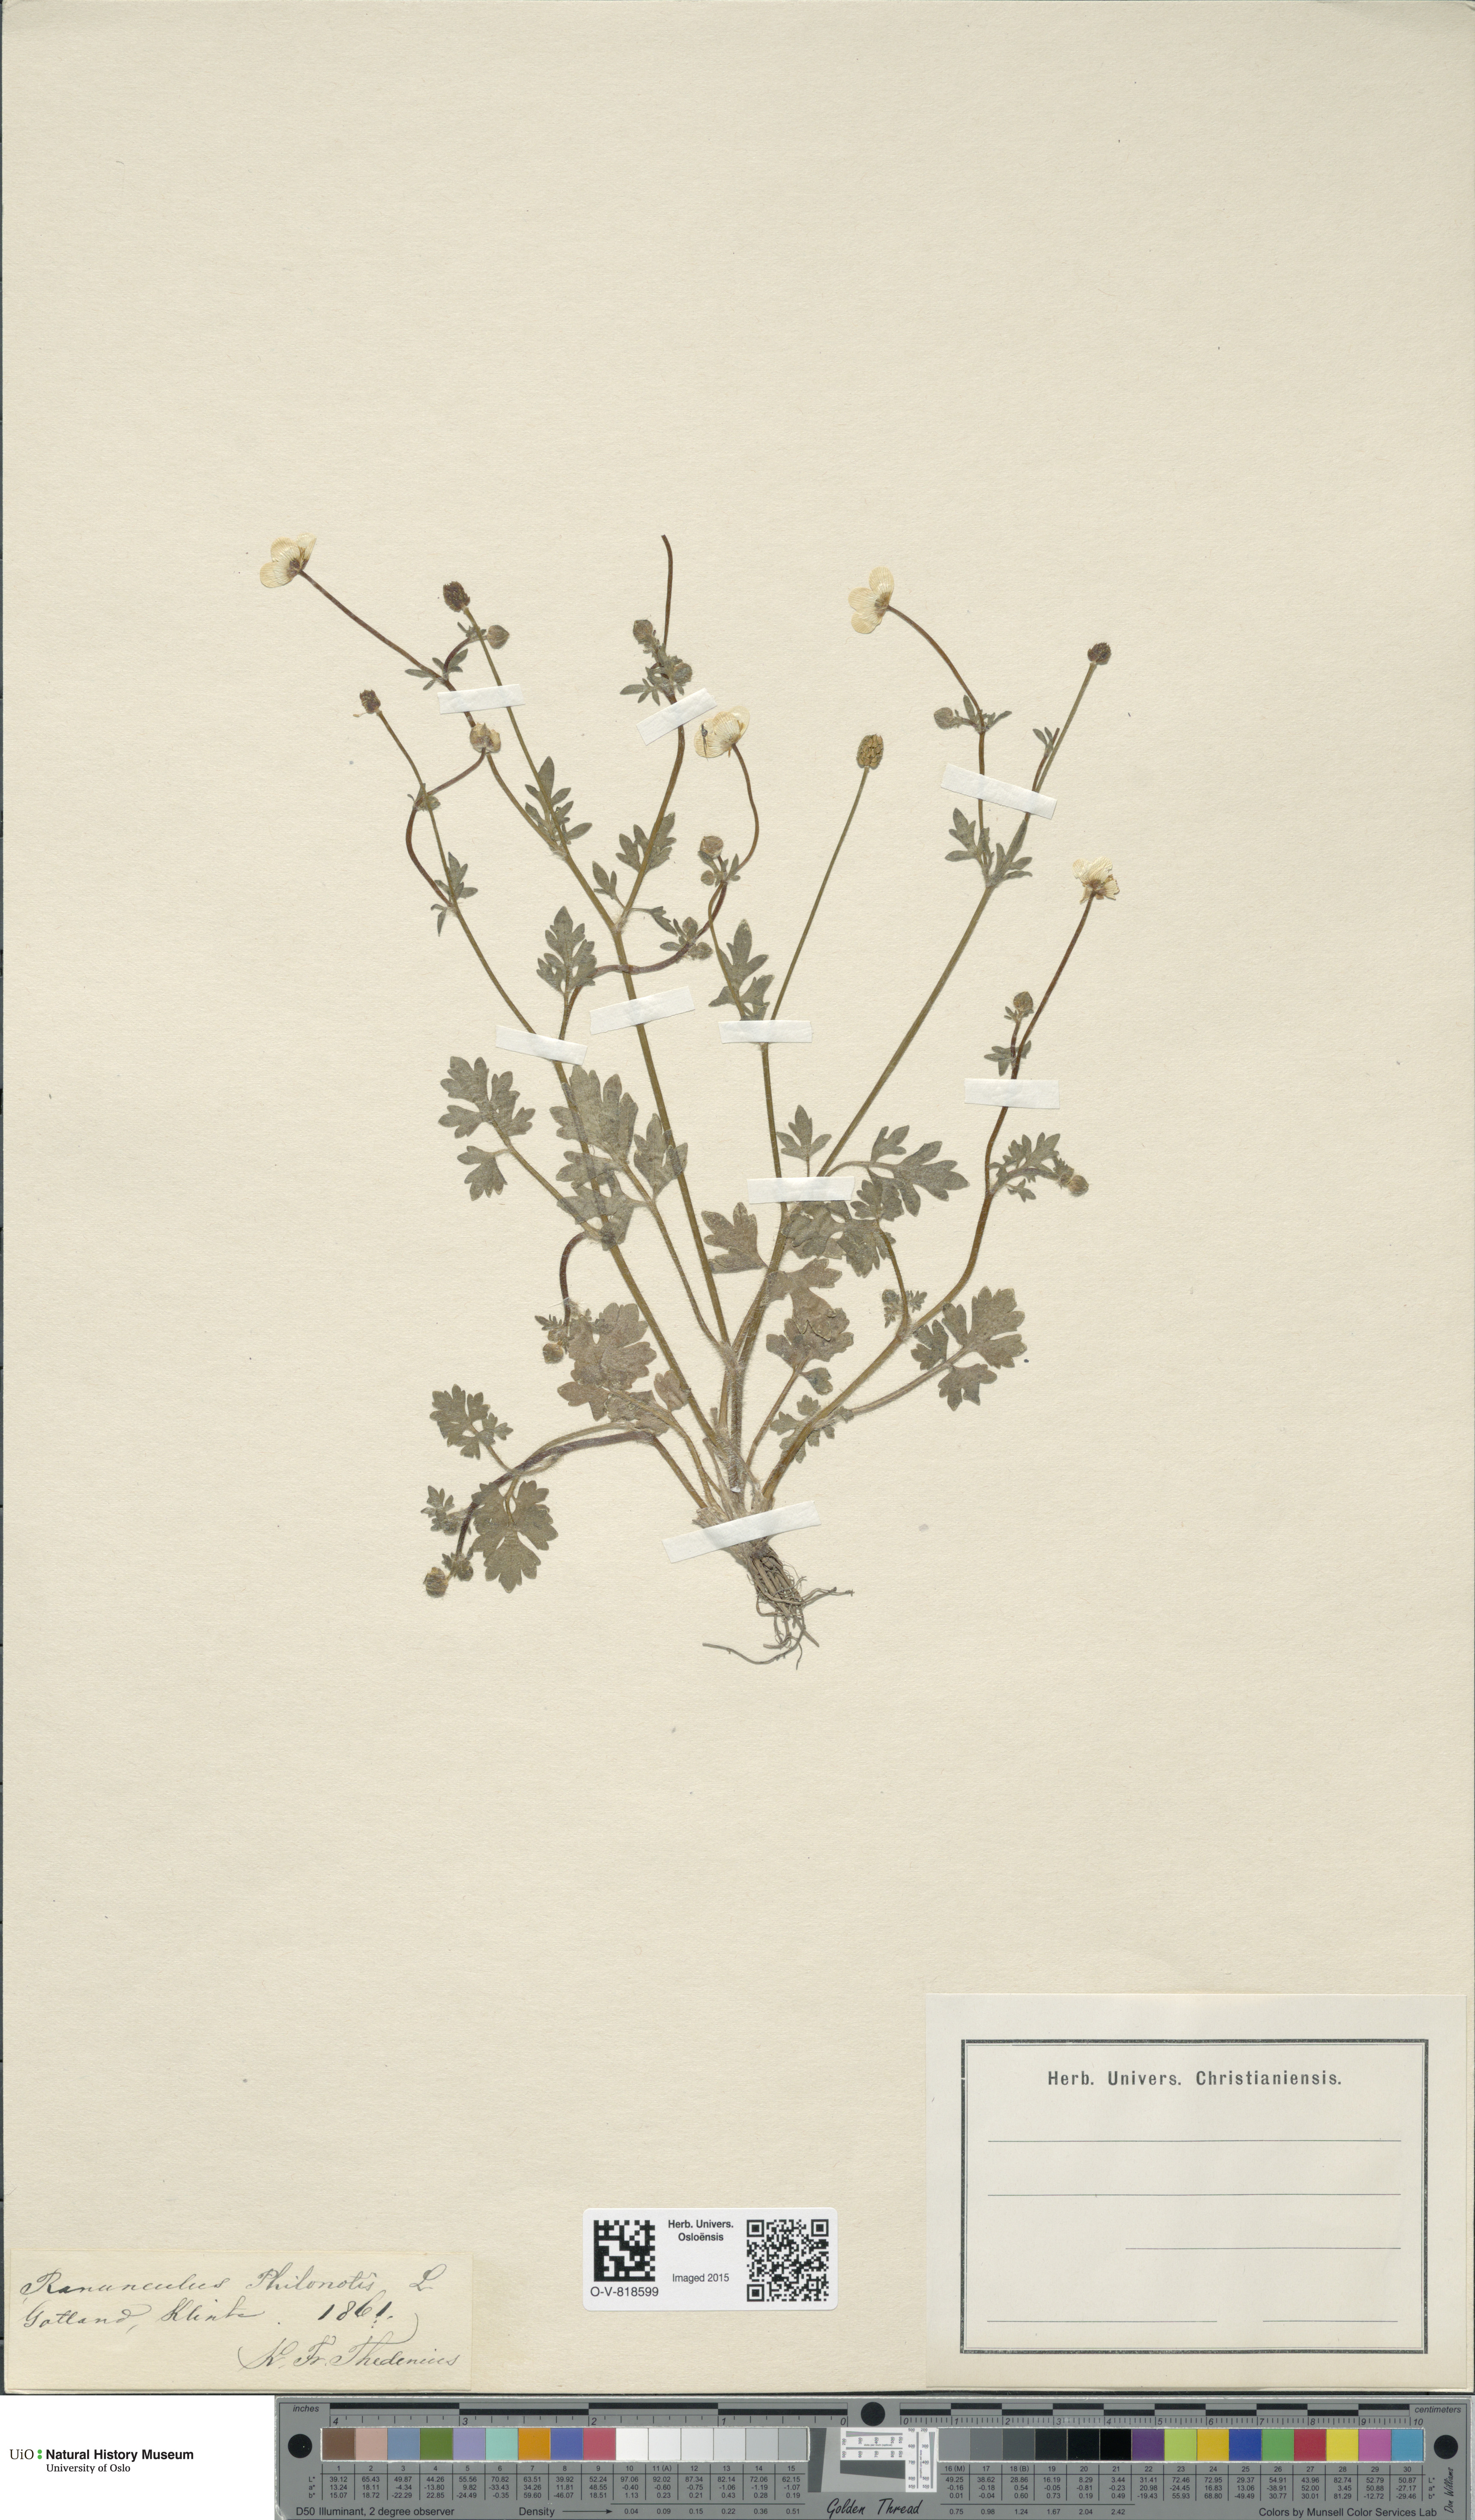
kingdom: Plantae
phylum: Tracheophyta
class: Magnoliopsida
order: Ranunculales
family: Ranunculaceae
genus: Ranunculus
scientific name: Ranunculus sardous
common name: Hairy buttercup
